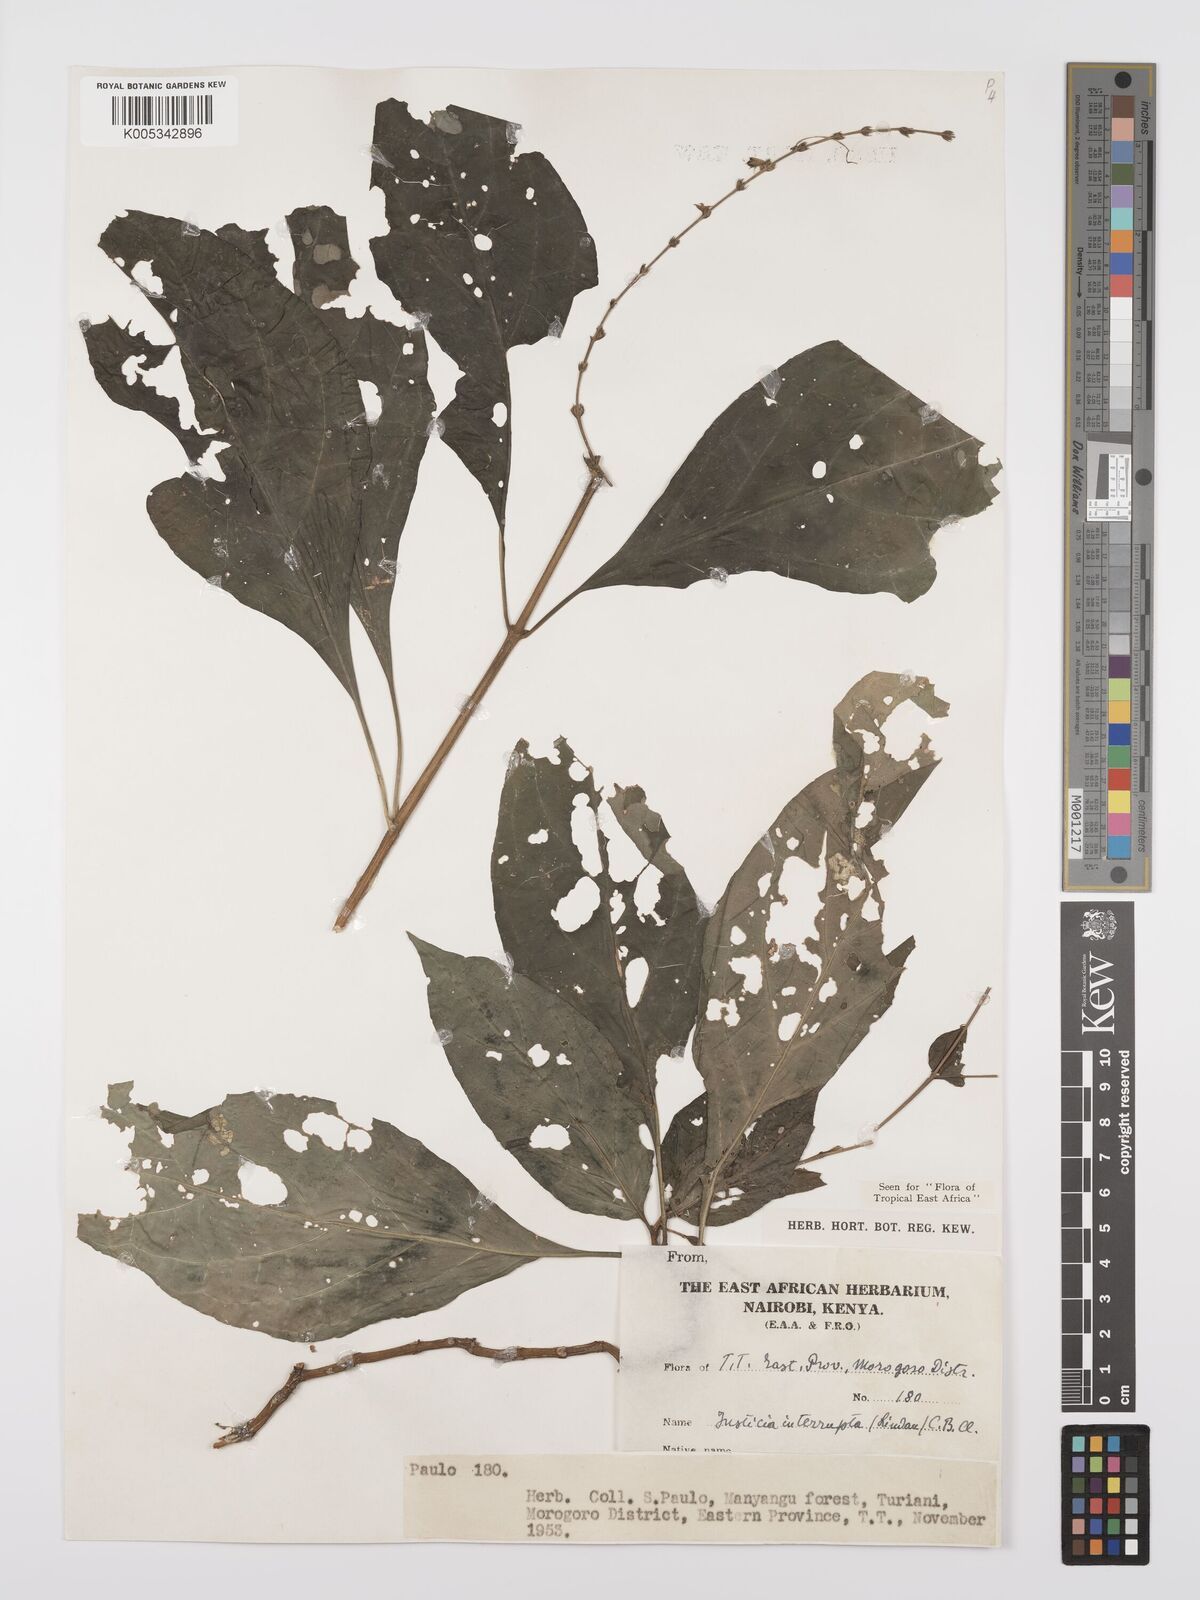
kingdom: Plantae
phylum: Tracheophyta
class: Magnoliopsida
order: Lamiales
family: Acanthaceae
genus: Justicia
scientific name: Justicia plectranthoides
